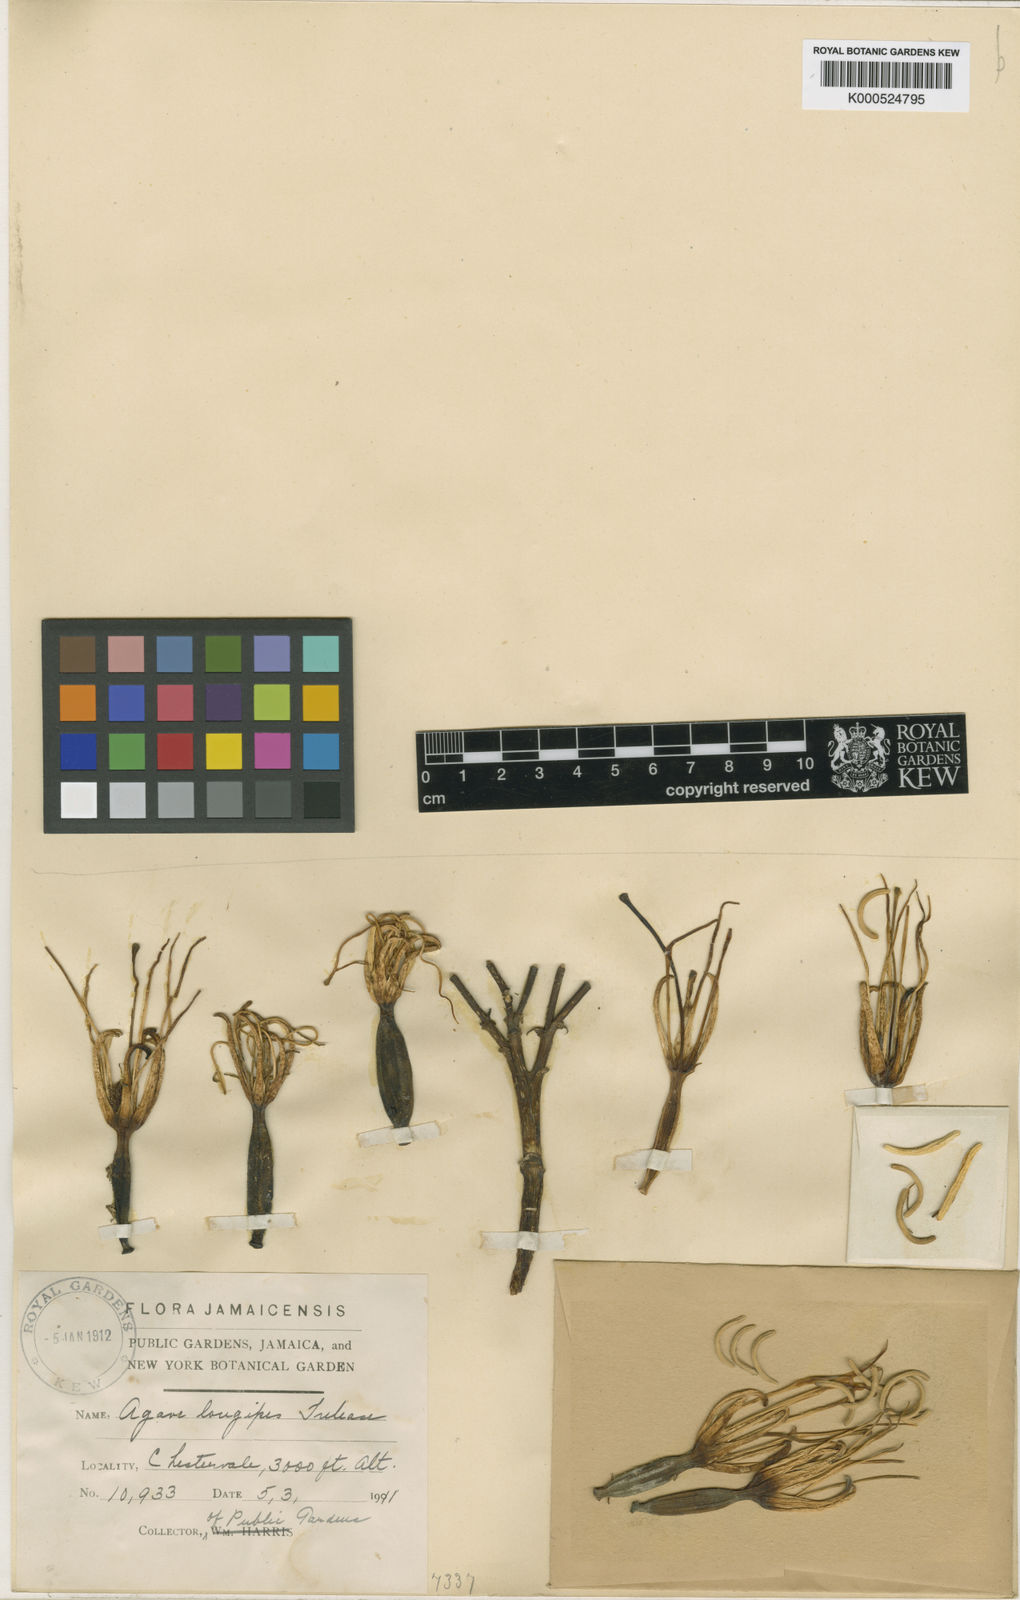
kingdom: Plantae
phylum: Tracheophyta
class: Liliopsida
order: Asparagales
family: Asparagaceae
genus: Agave
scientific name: Agave longipes
